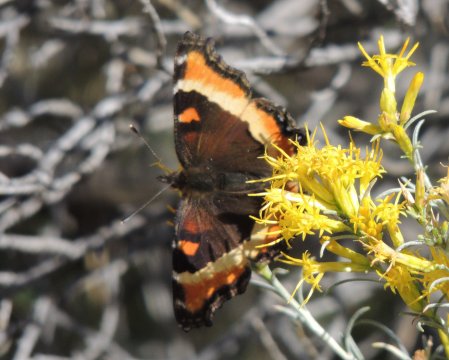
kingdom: Animalia
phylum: Arthropoda
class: Insecta
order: Lepidoptera
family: Nymphalidae
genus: Aglais
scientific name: Aglais milberti
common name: Milbert's Tortoiseshell
